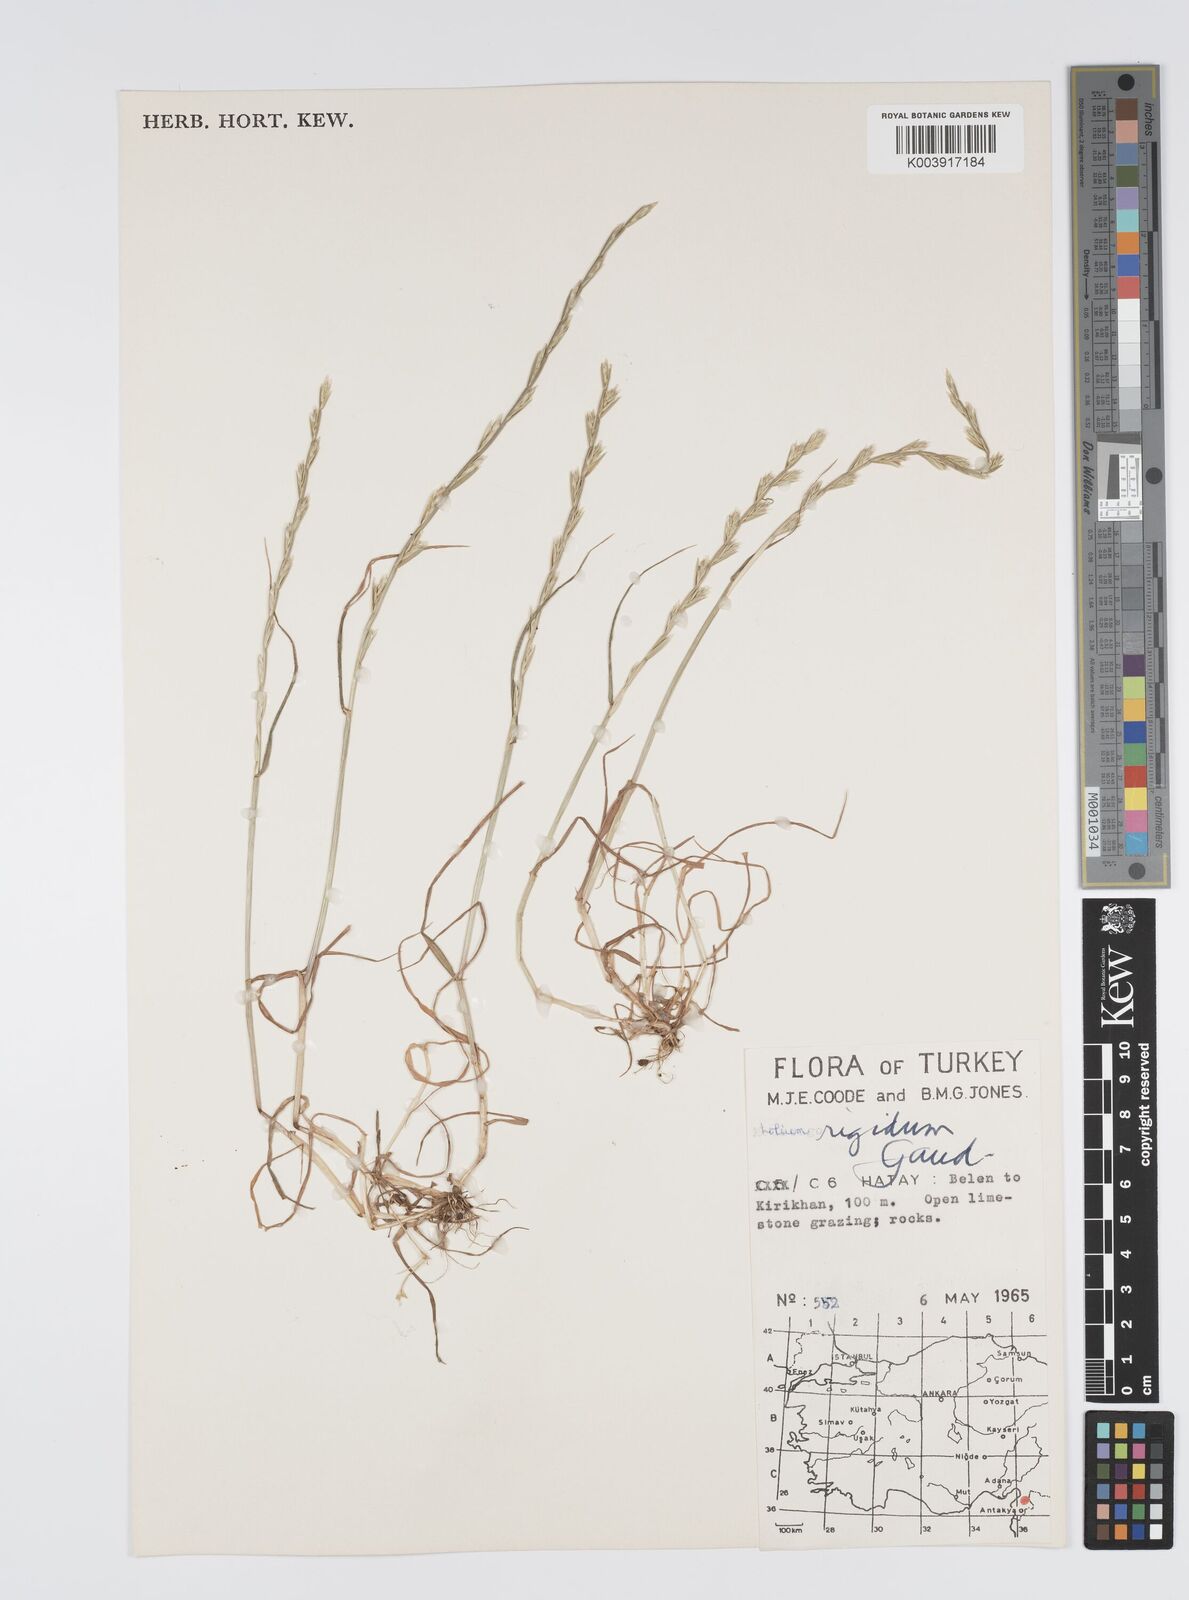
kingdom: Plantae
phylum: Tracheophyta
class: Liliopsida
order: Poales
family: Poaceae
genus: Lolium
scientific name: Lolium rigidum
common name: Wimmera ryegrass
